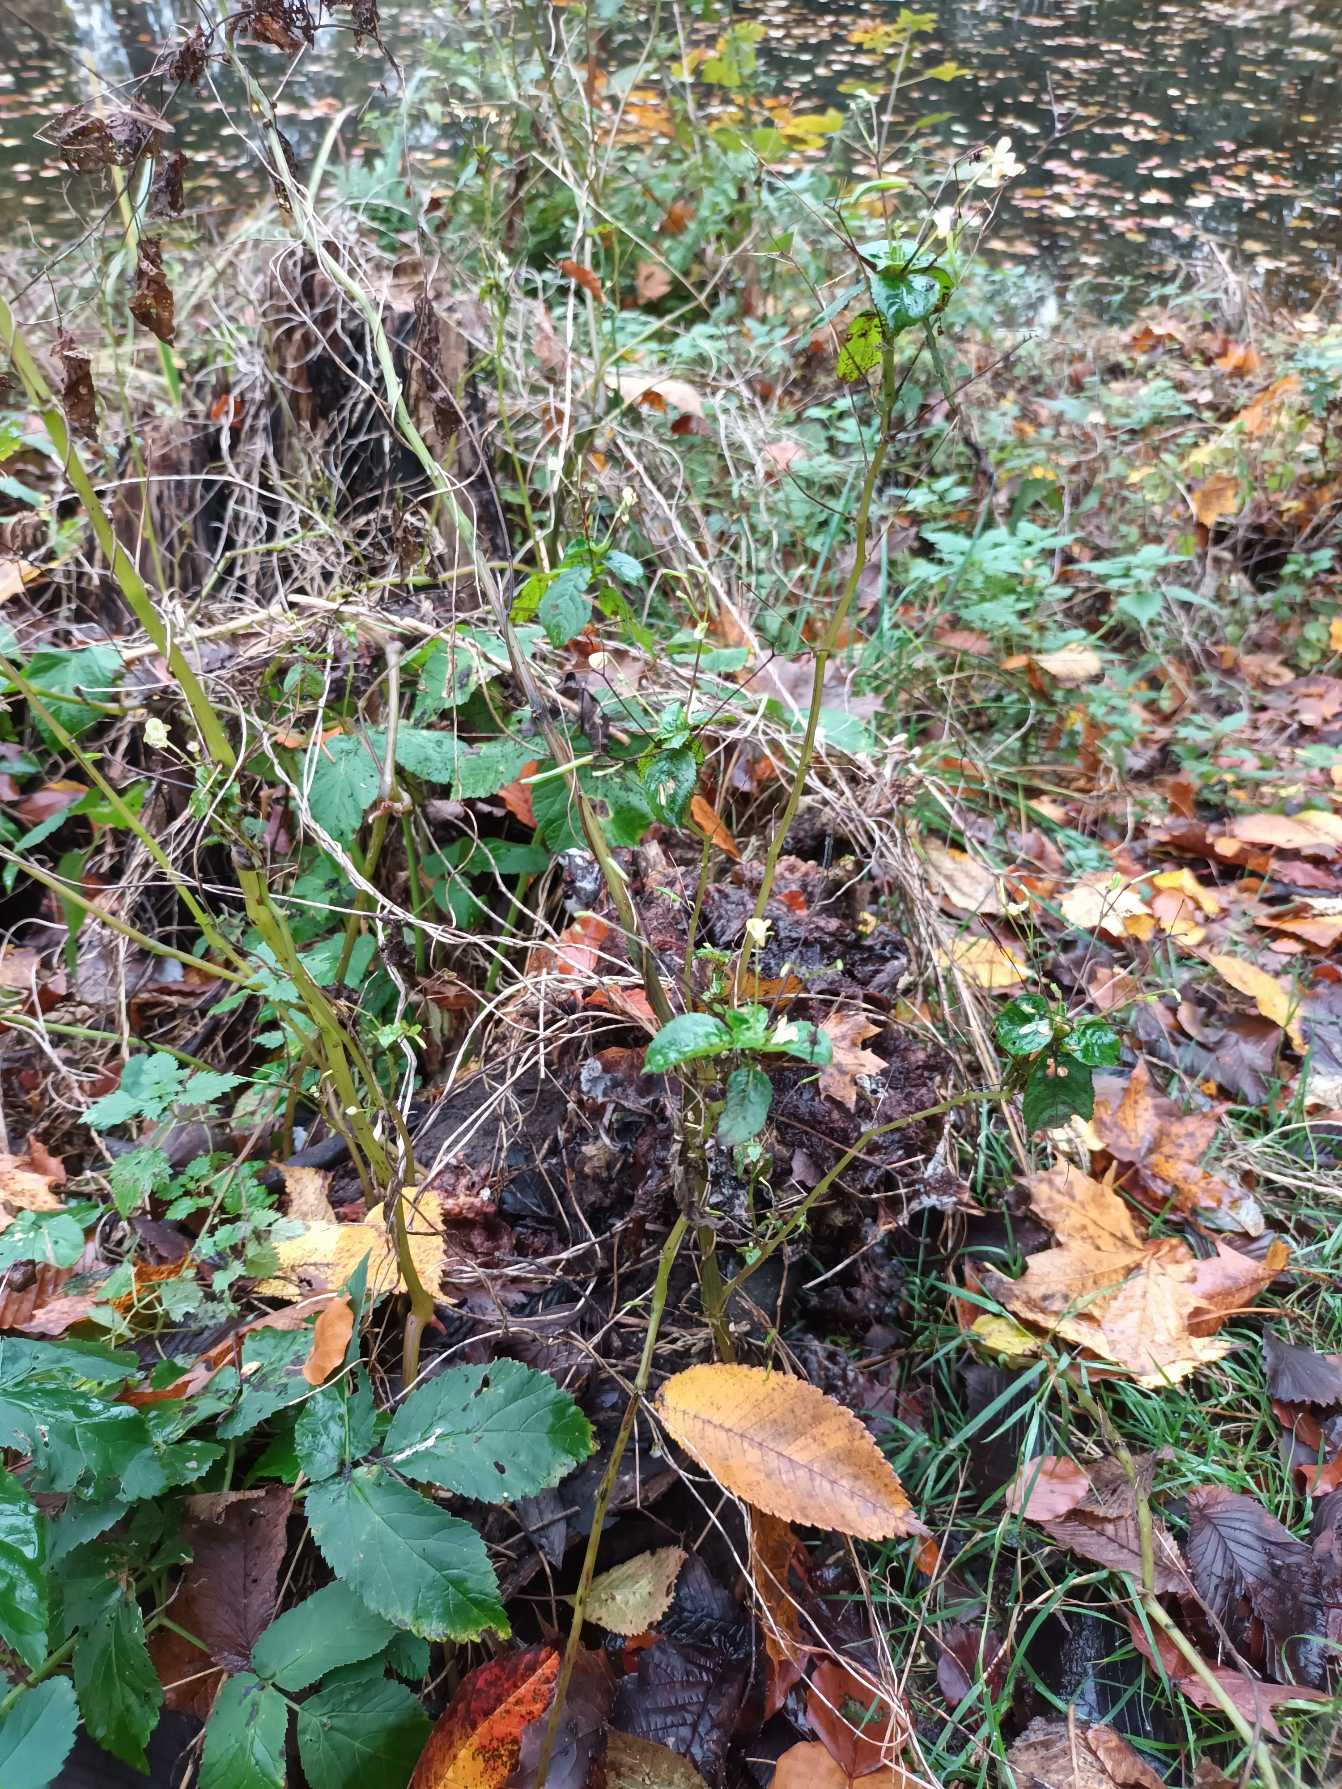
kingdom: Plantae
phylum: Tracheophyta
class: Magnoliopsida
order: Ericales
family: Balsaminaceae
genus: Impatiens
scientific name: Impatiens parviflora
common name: Småblomstret balsamin
